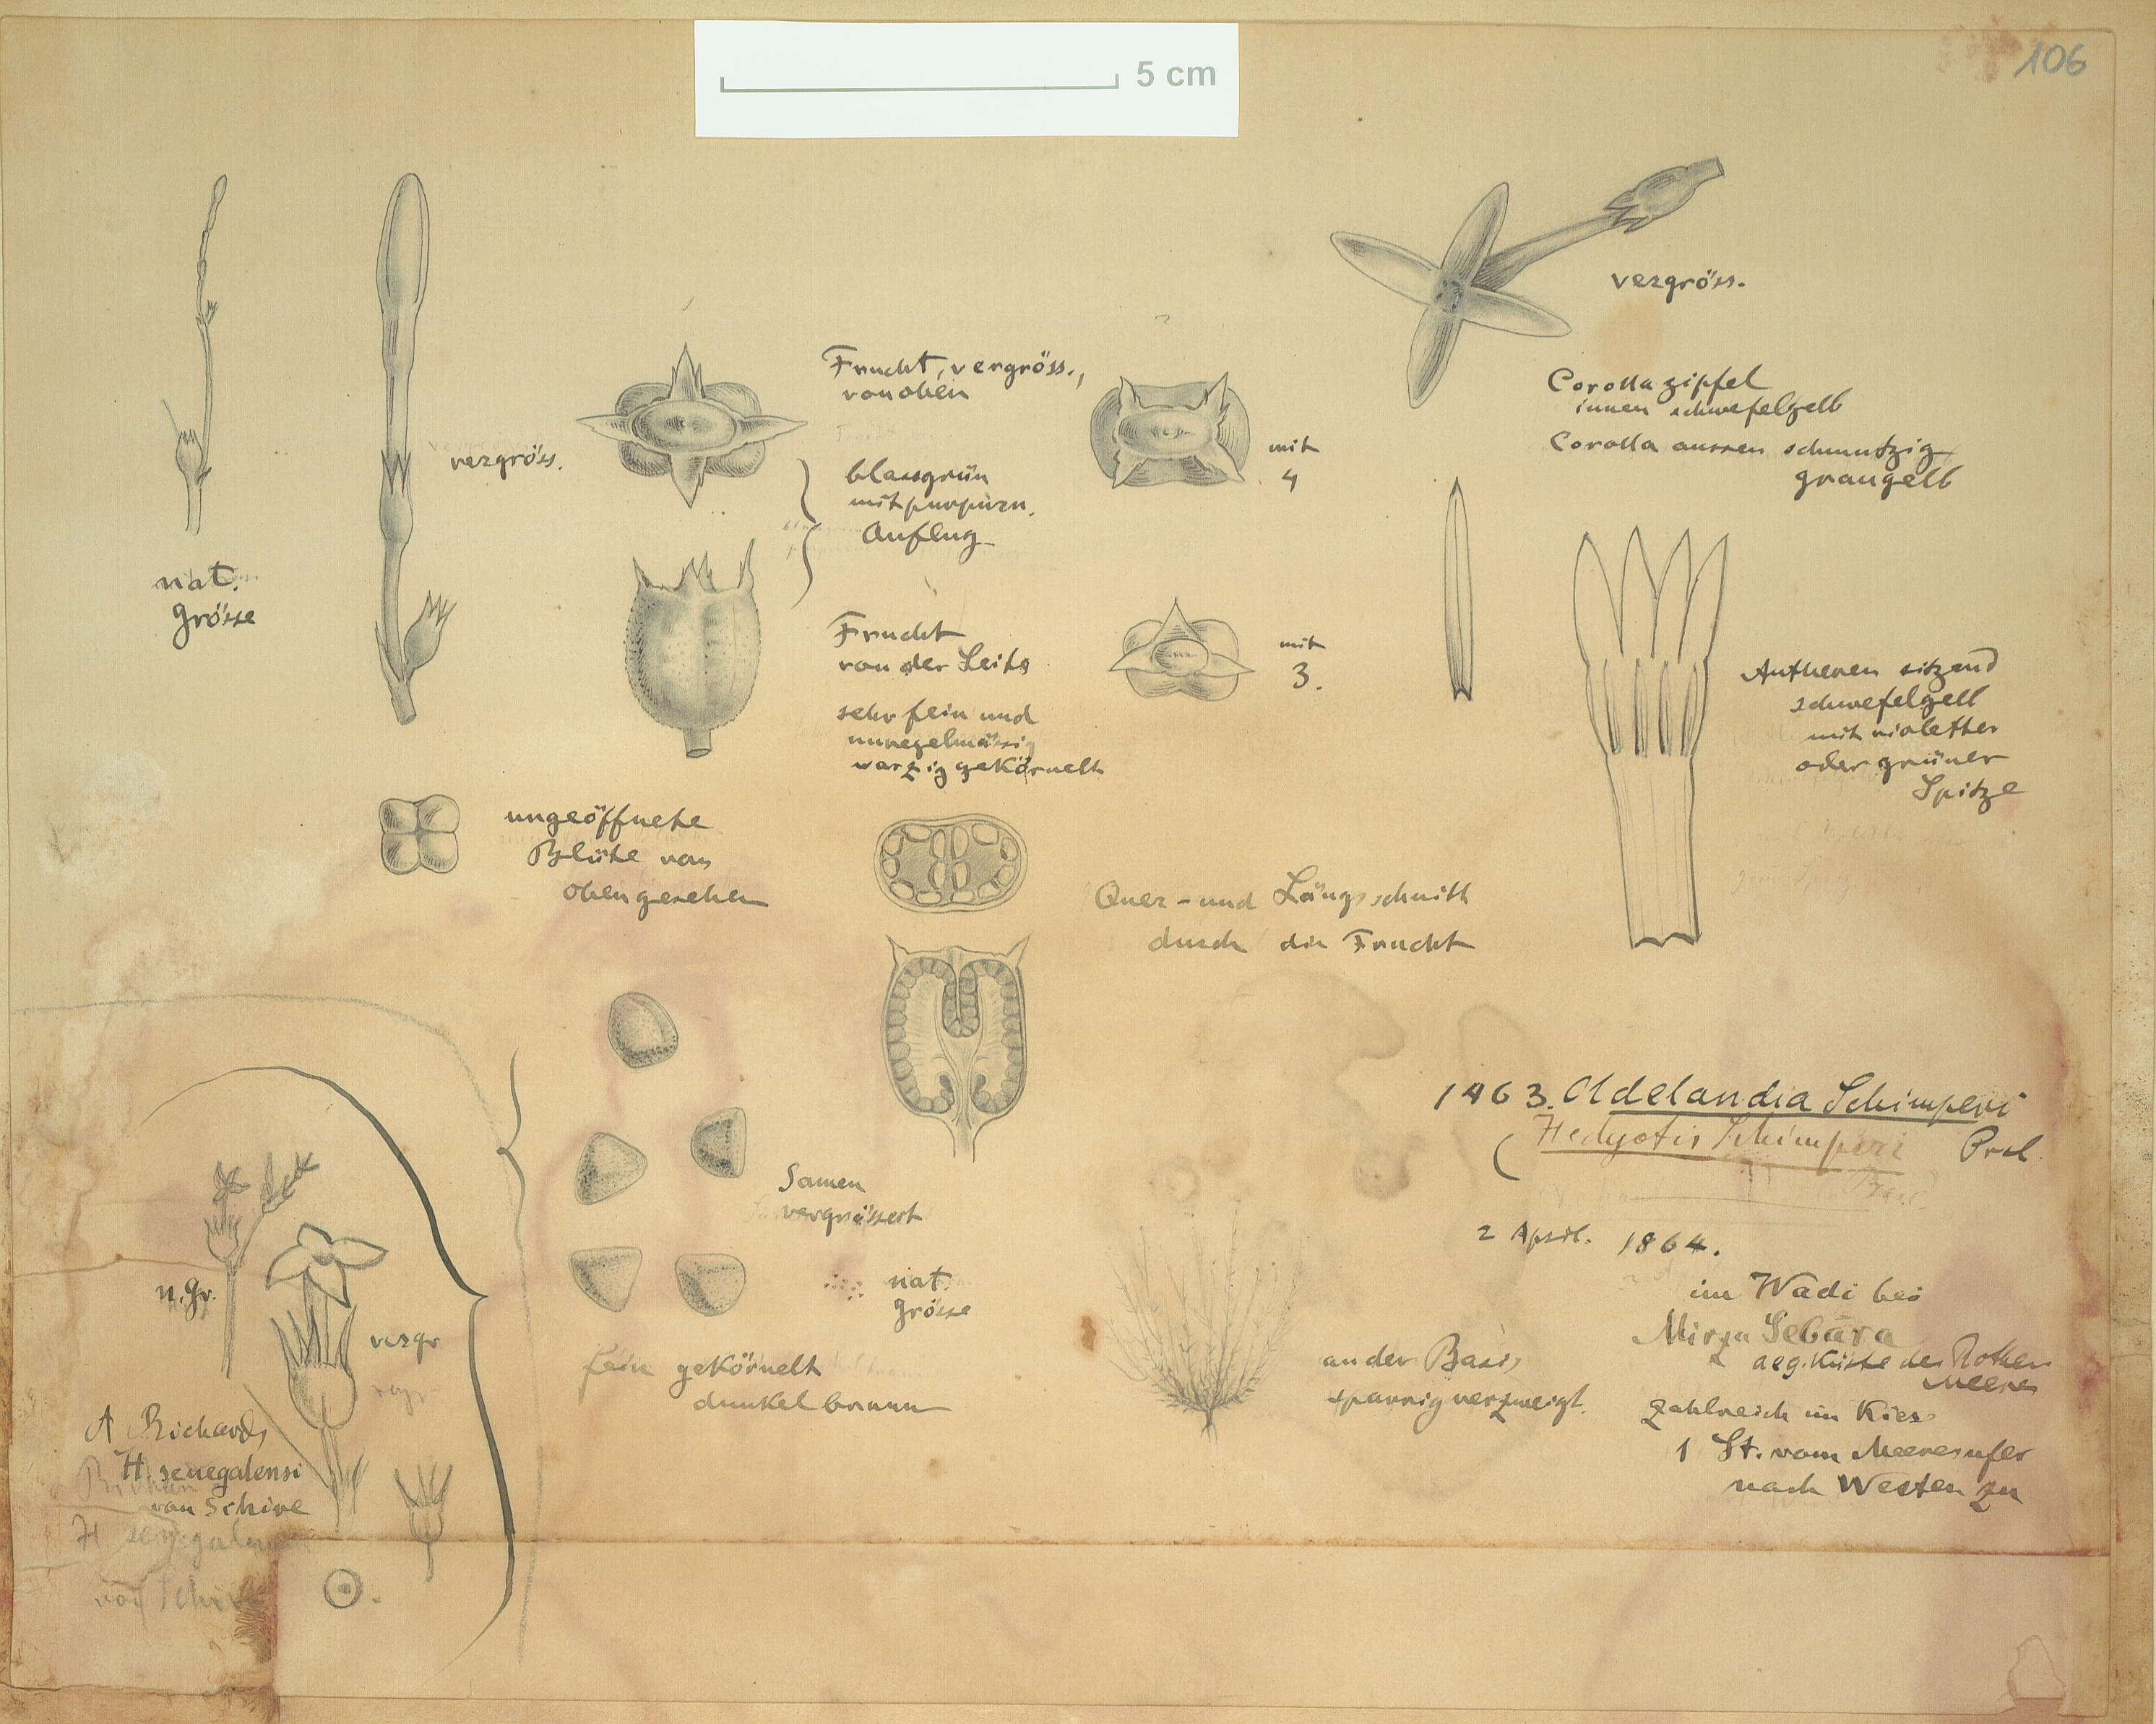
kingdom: Plantae
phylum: Tracheophyta
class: Magnoliopsida
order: Gentianales
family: Rubiaceae
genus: Kohautia
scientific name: Kohautia caespitosa
